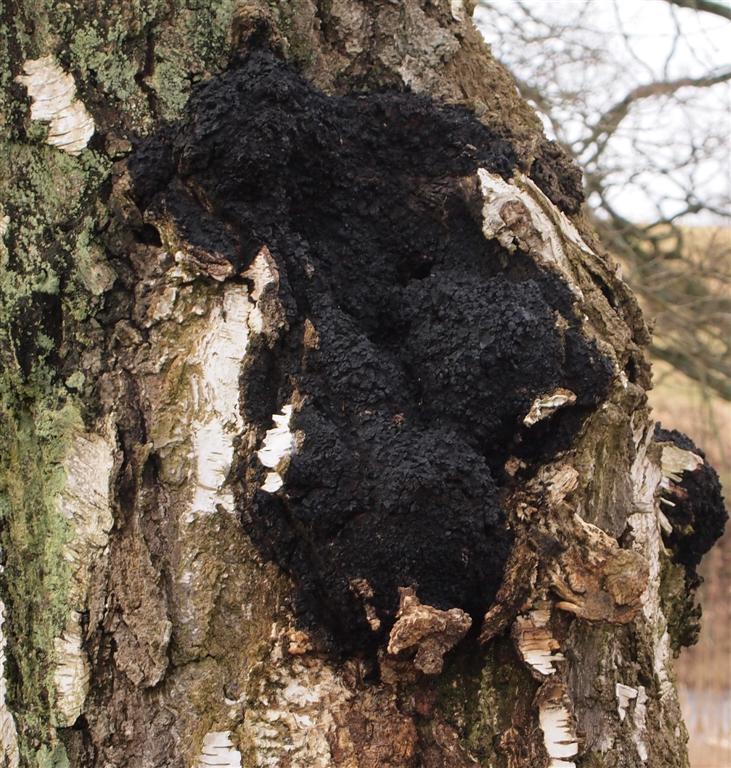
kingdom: Fungi
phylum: Basidiomycota
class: Agaricomycetes
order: Hymenochaetales
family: Hymenochaetaceae
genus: Inonotus
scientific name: Inonotus obliquus
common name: birke-spejlporesvamp
